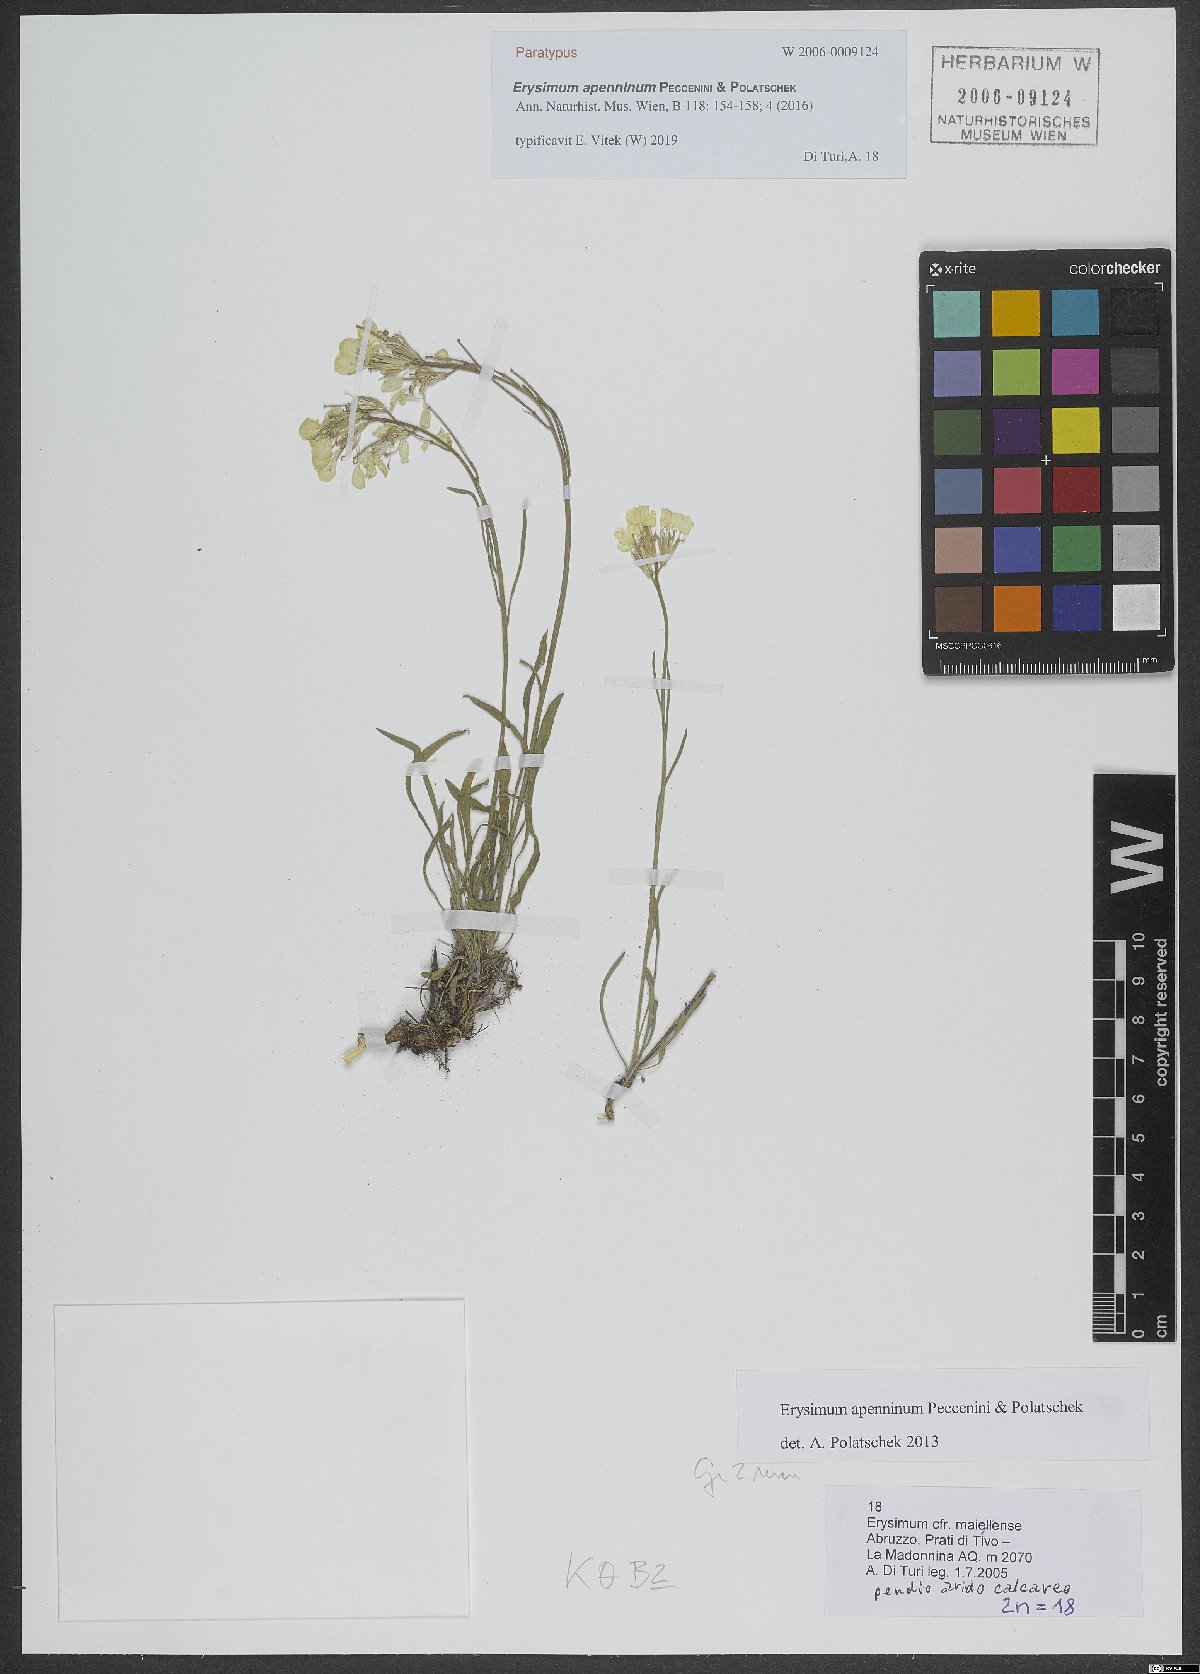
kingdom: Plantae
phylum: Tracheophyta
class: Magnoliopsida
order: Brassicales
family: Brassicaceae
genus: Erysimum
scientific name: Erysimum apenninum
